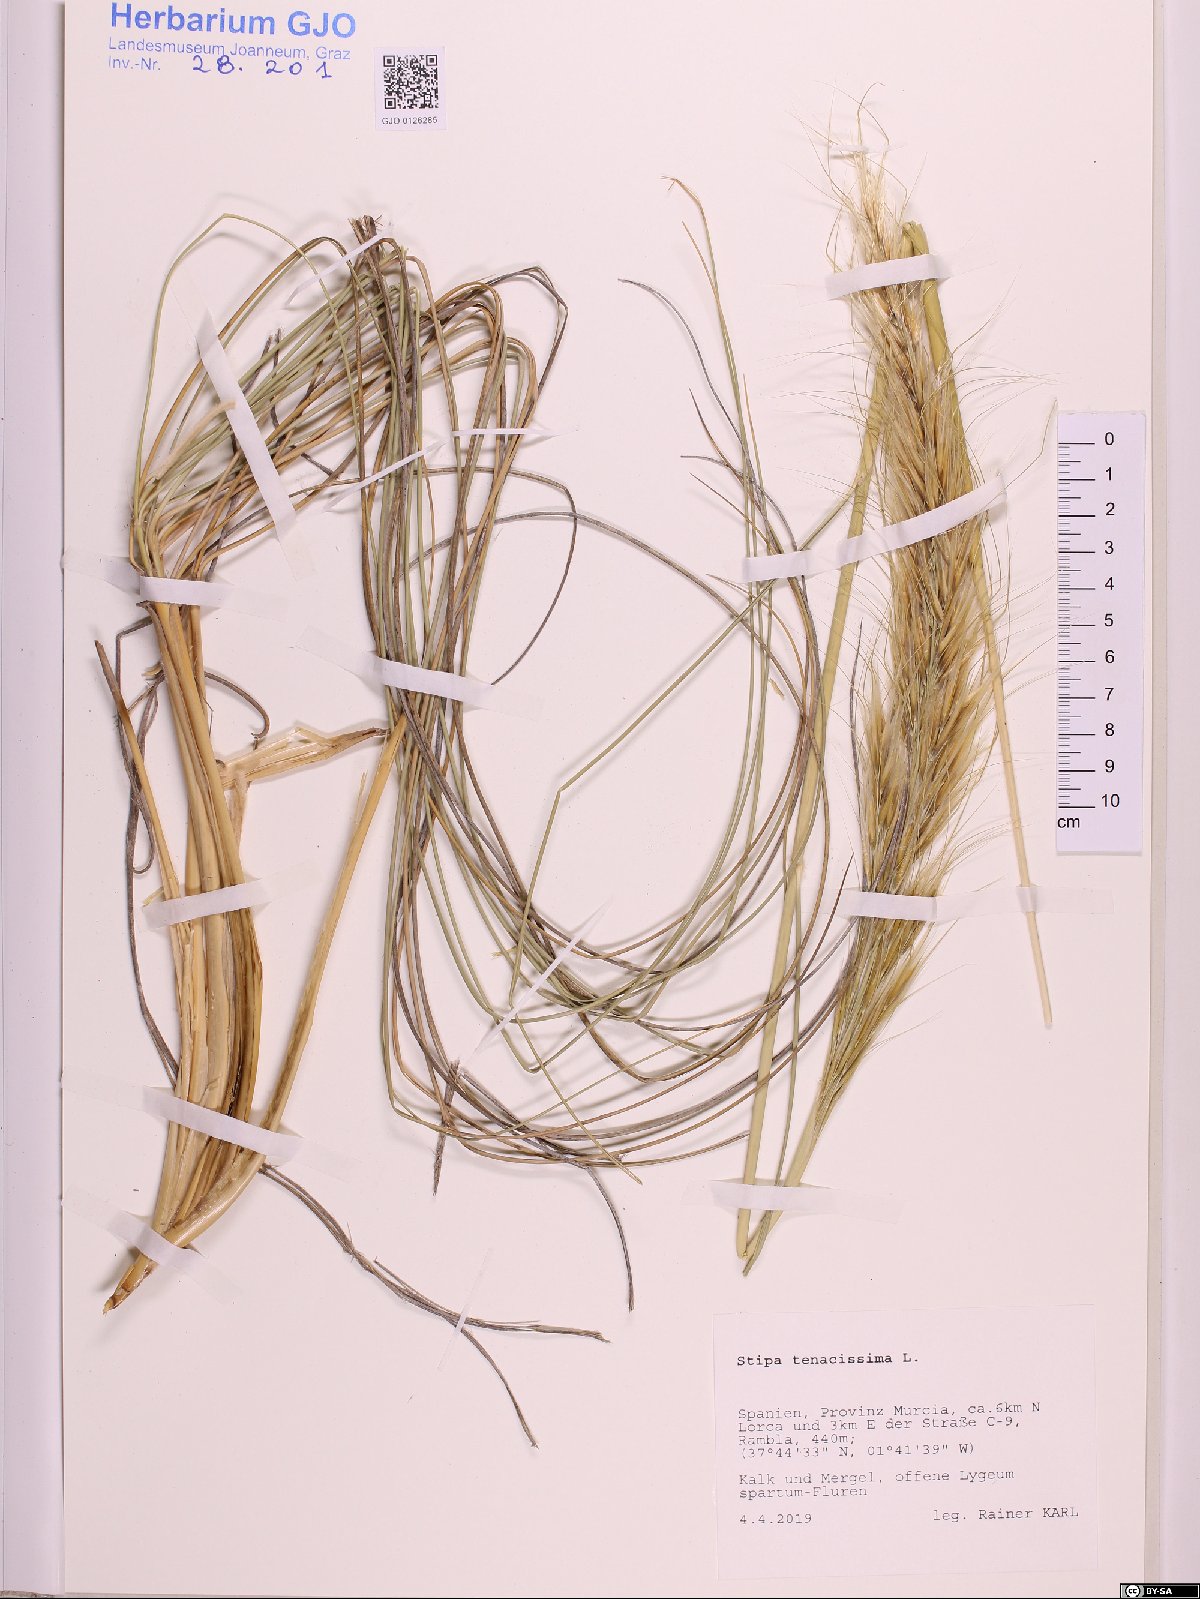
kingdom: Plantae
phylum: Tracheophyta
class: Liliopsida
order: Poales
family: Poaceae
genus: Macrochloa
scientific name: Macrochloa tenacissima
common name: Alfa grass
